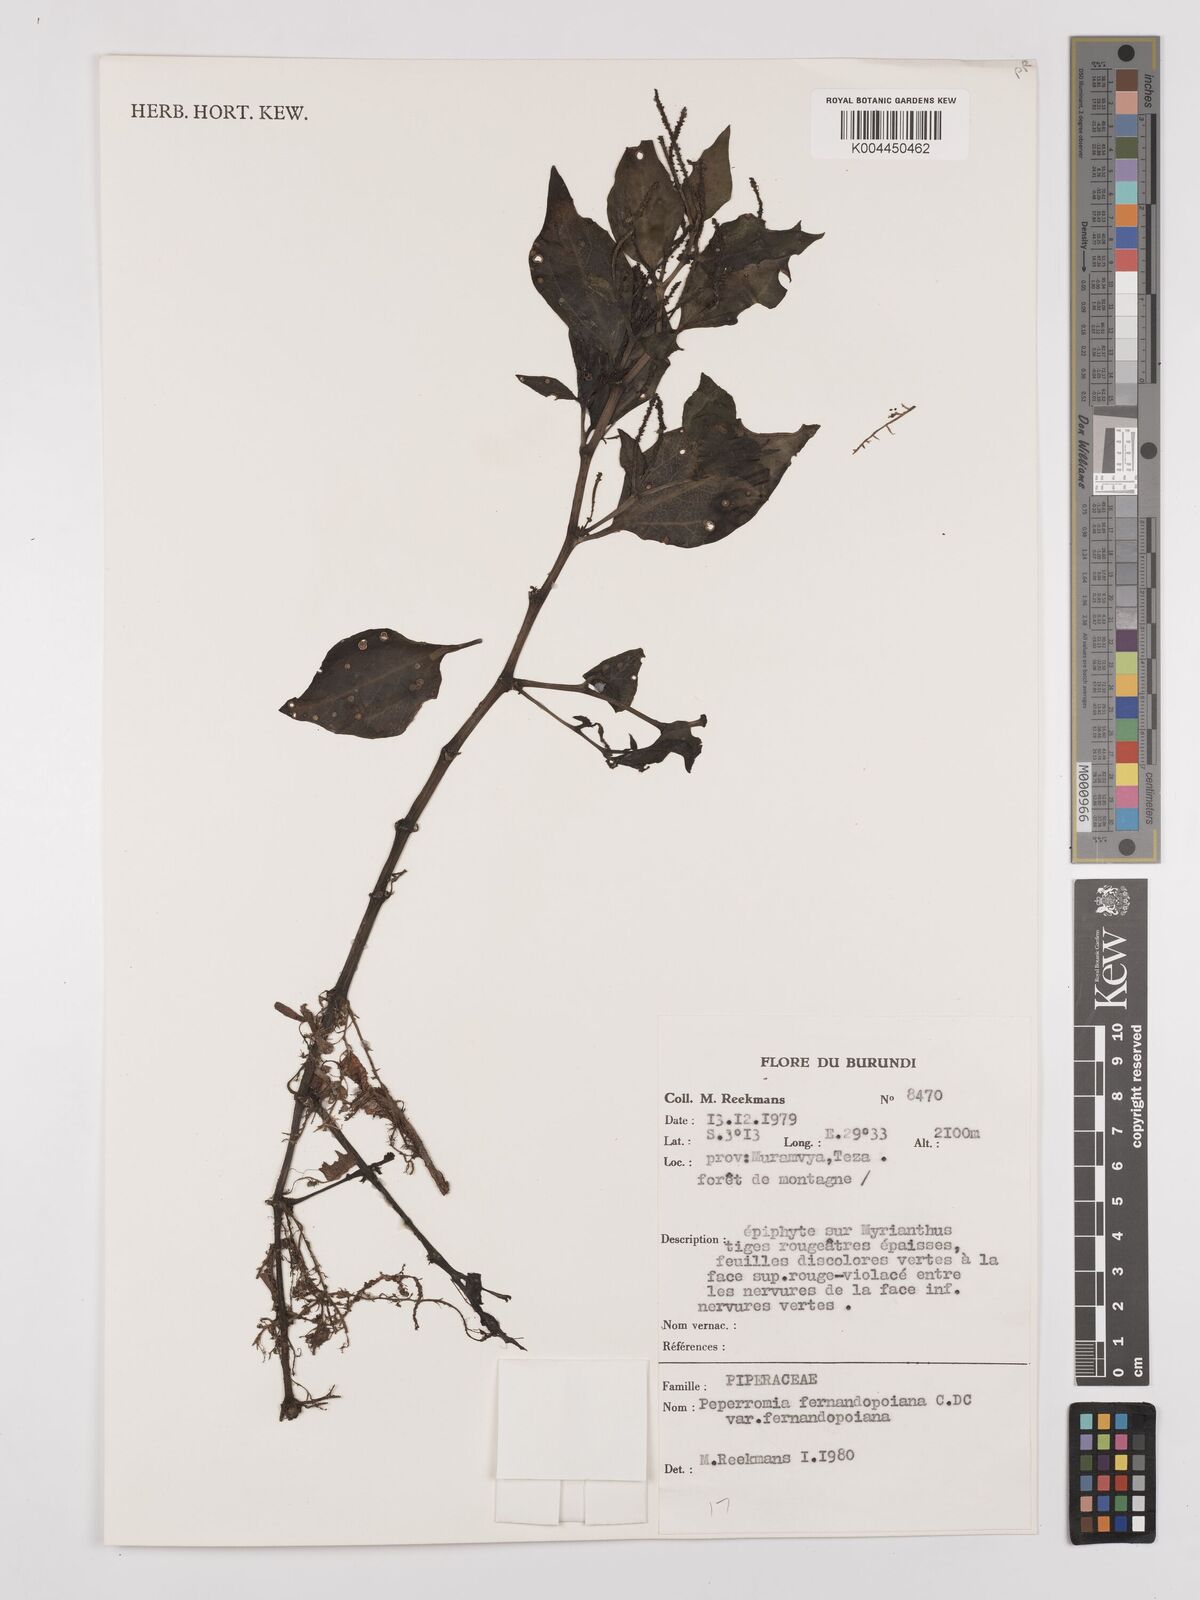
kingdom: Plantae
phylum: Tracheophyta
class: Magnoliopsida
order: Piperales
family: Piperaceae
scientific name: Piperaceae
